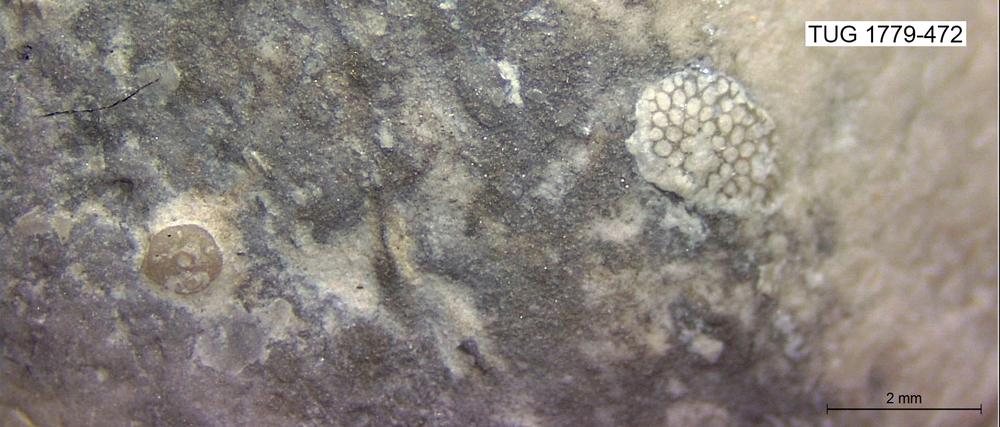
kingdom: Animalia
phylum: Bryozoa
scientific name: Bryozoa
